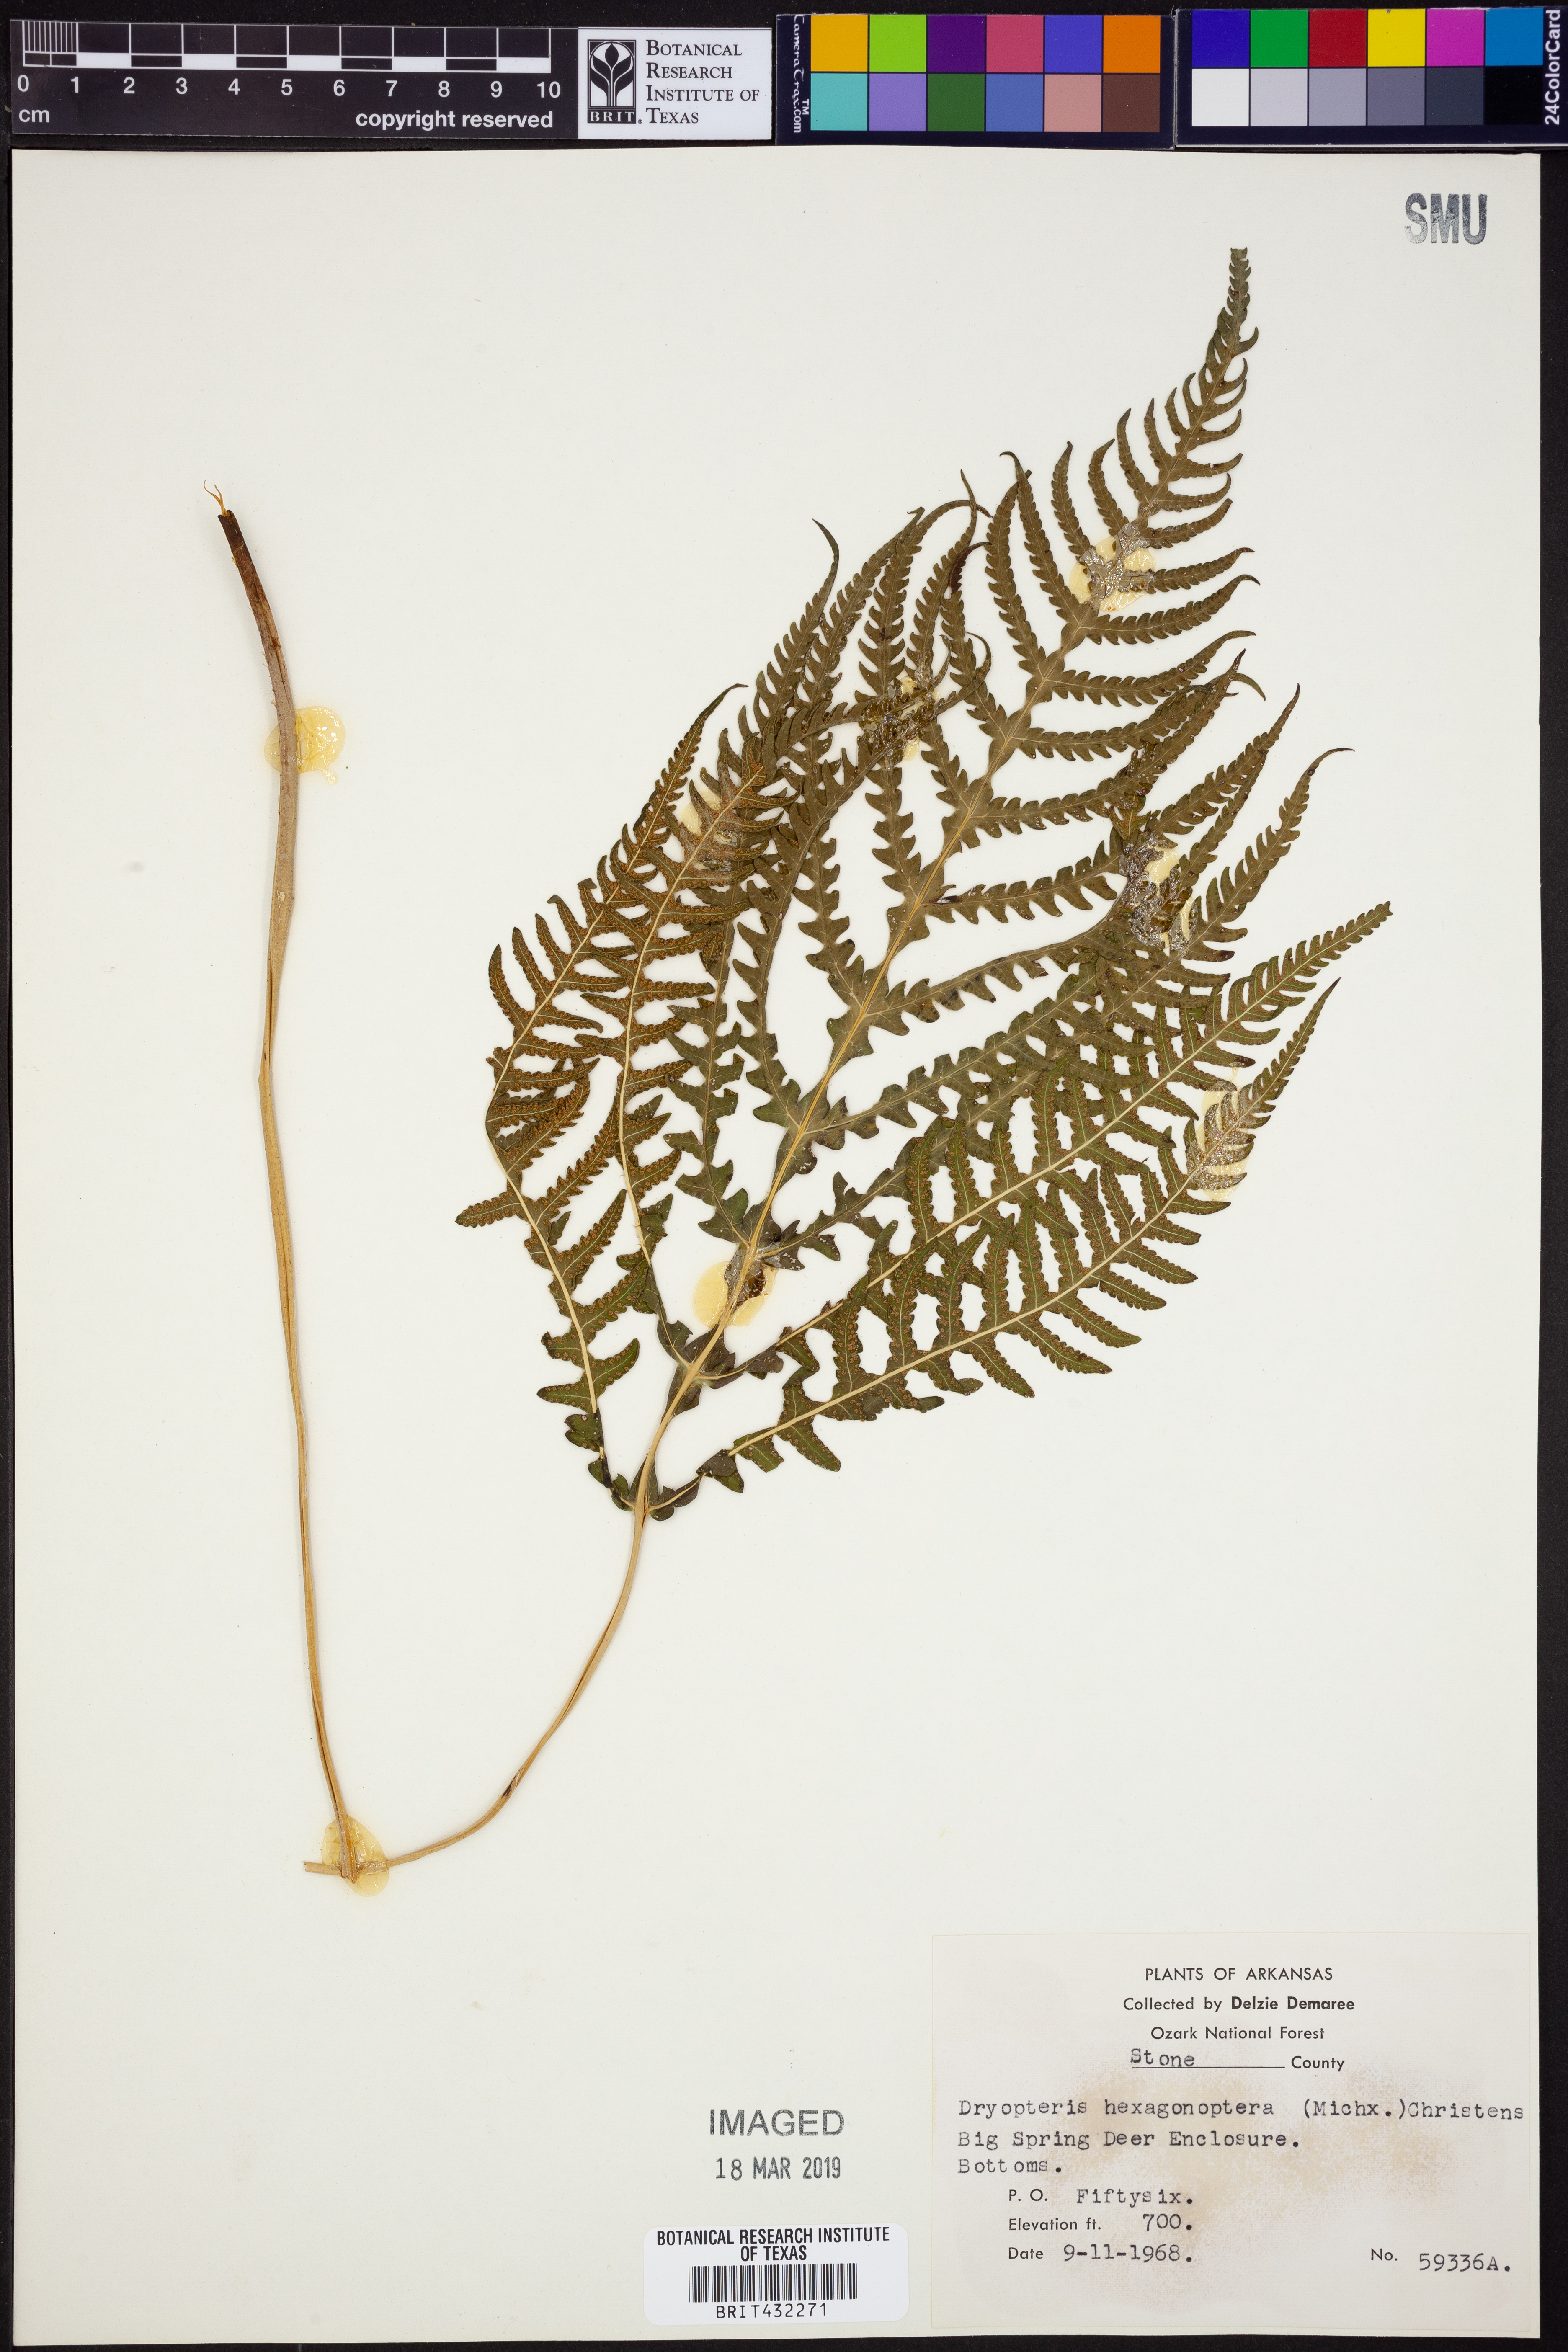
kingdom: Plantae
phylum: Tracheophyta
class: Polypodiopsida
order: Polypodiales
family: Dryopteridaceae
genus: Dryopteris
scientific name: Dryopteris hexagonaptera
